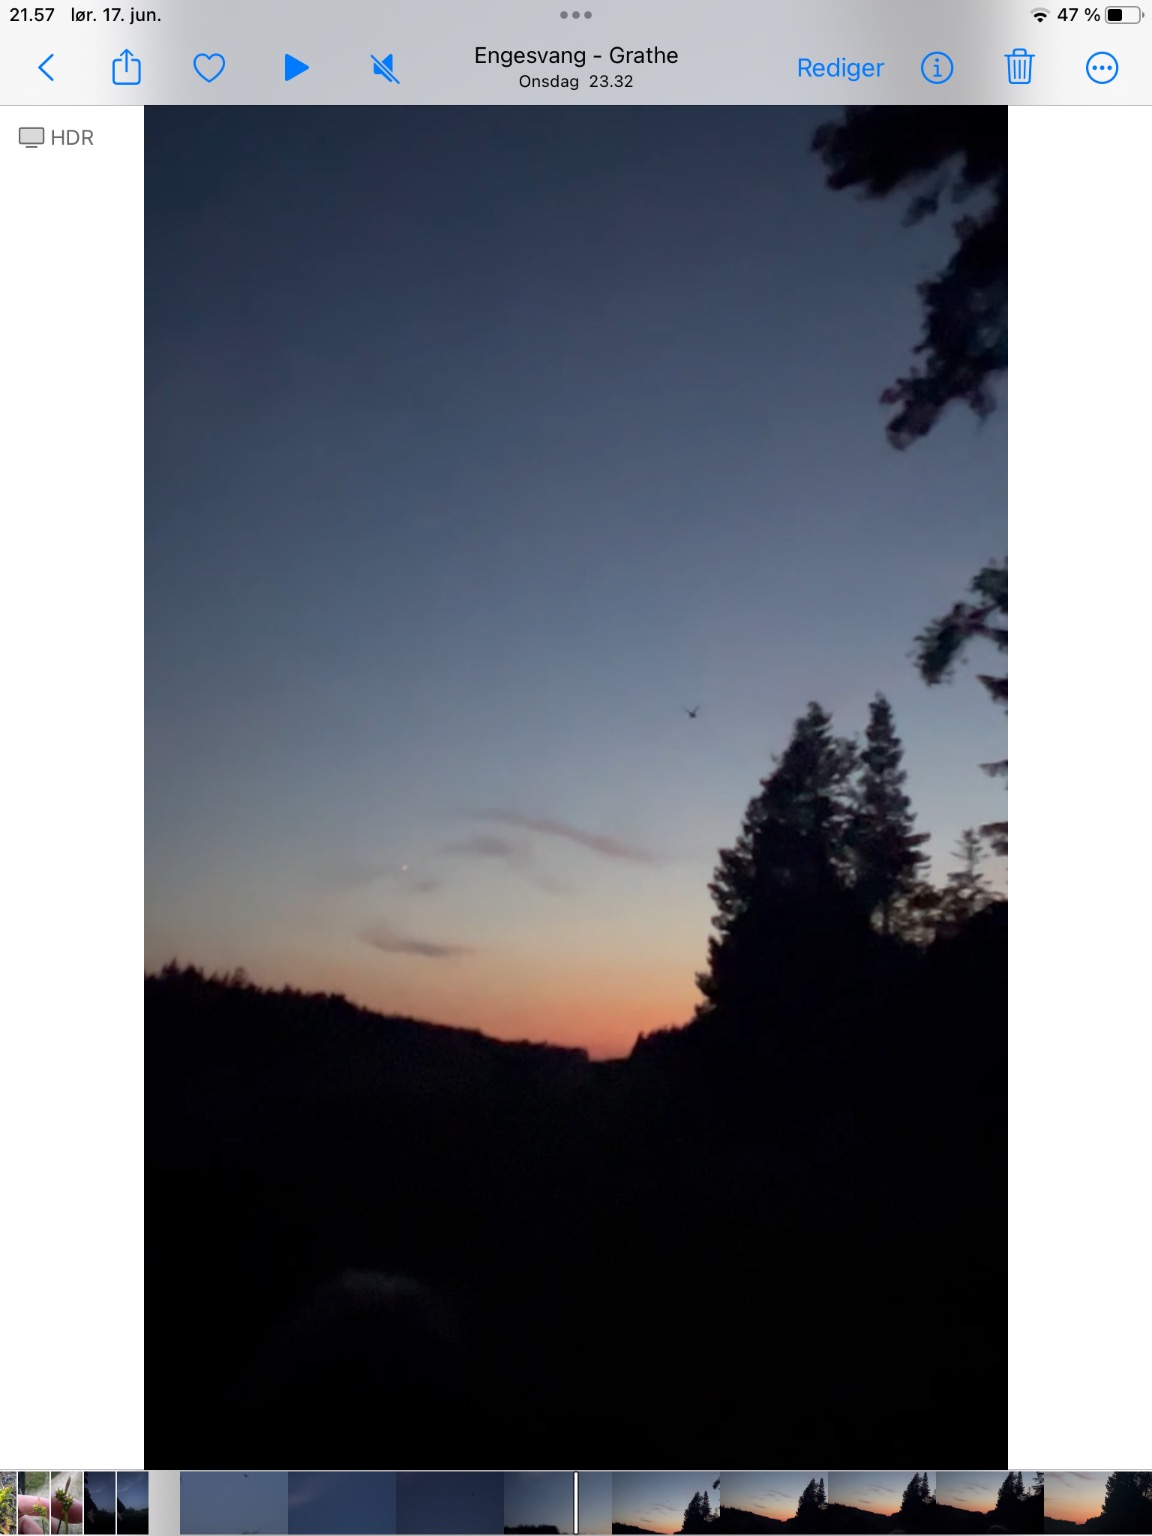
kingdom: Animalia
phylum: Chordata
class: Aves
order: Caprimulgiformes
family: Caprimulgidae
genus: Caprimulgus
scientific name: Caprimulgus europaeus
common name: Natravn
